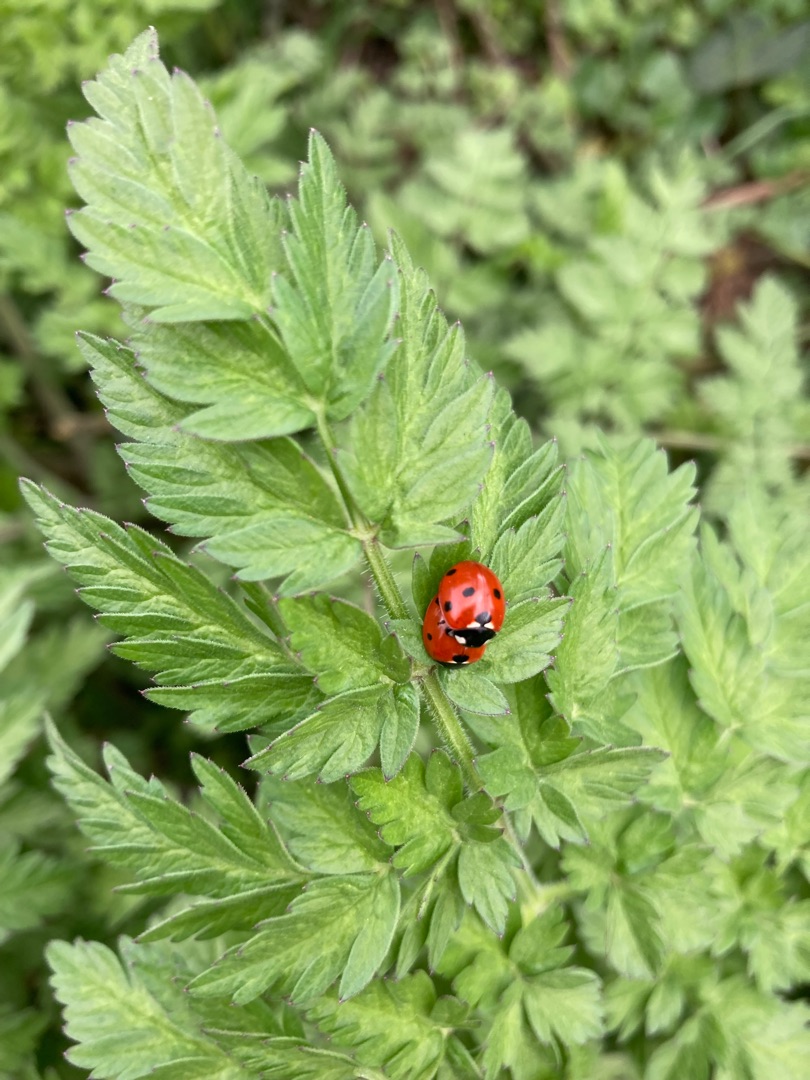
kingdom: Animalia
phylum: Arthropoda
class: Insecta
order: Coleoptera
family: Coccinellidae
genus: Coccinella
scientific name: Coccinella septempunctata
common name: Syvplettet mariehøne
